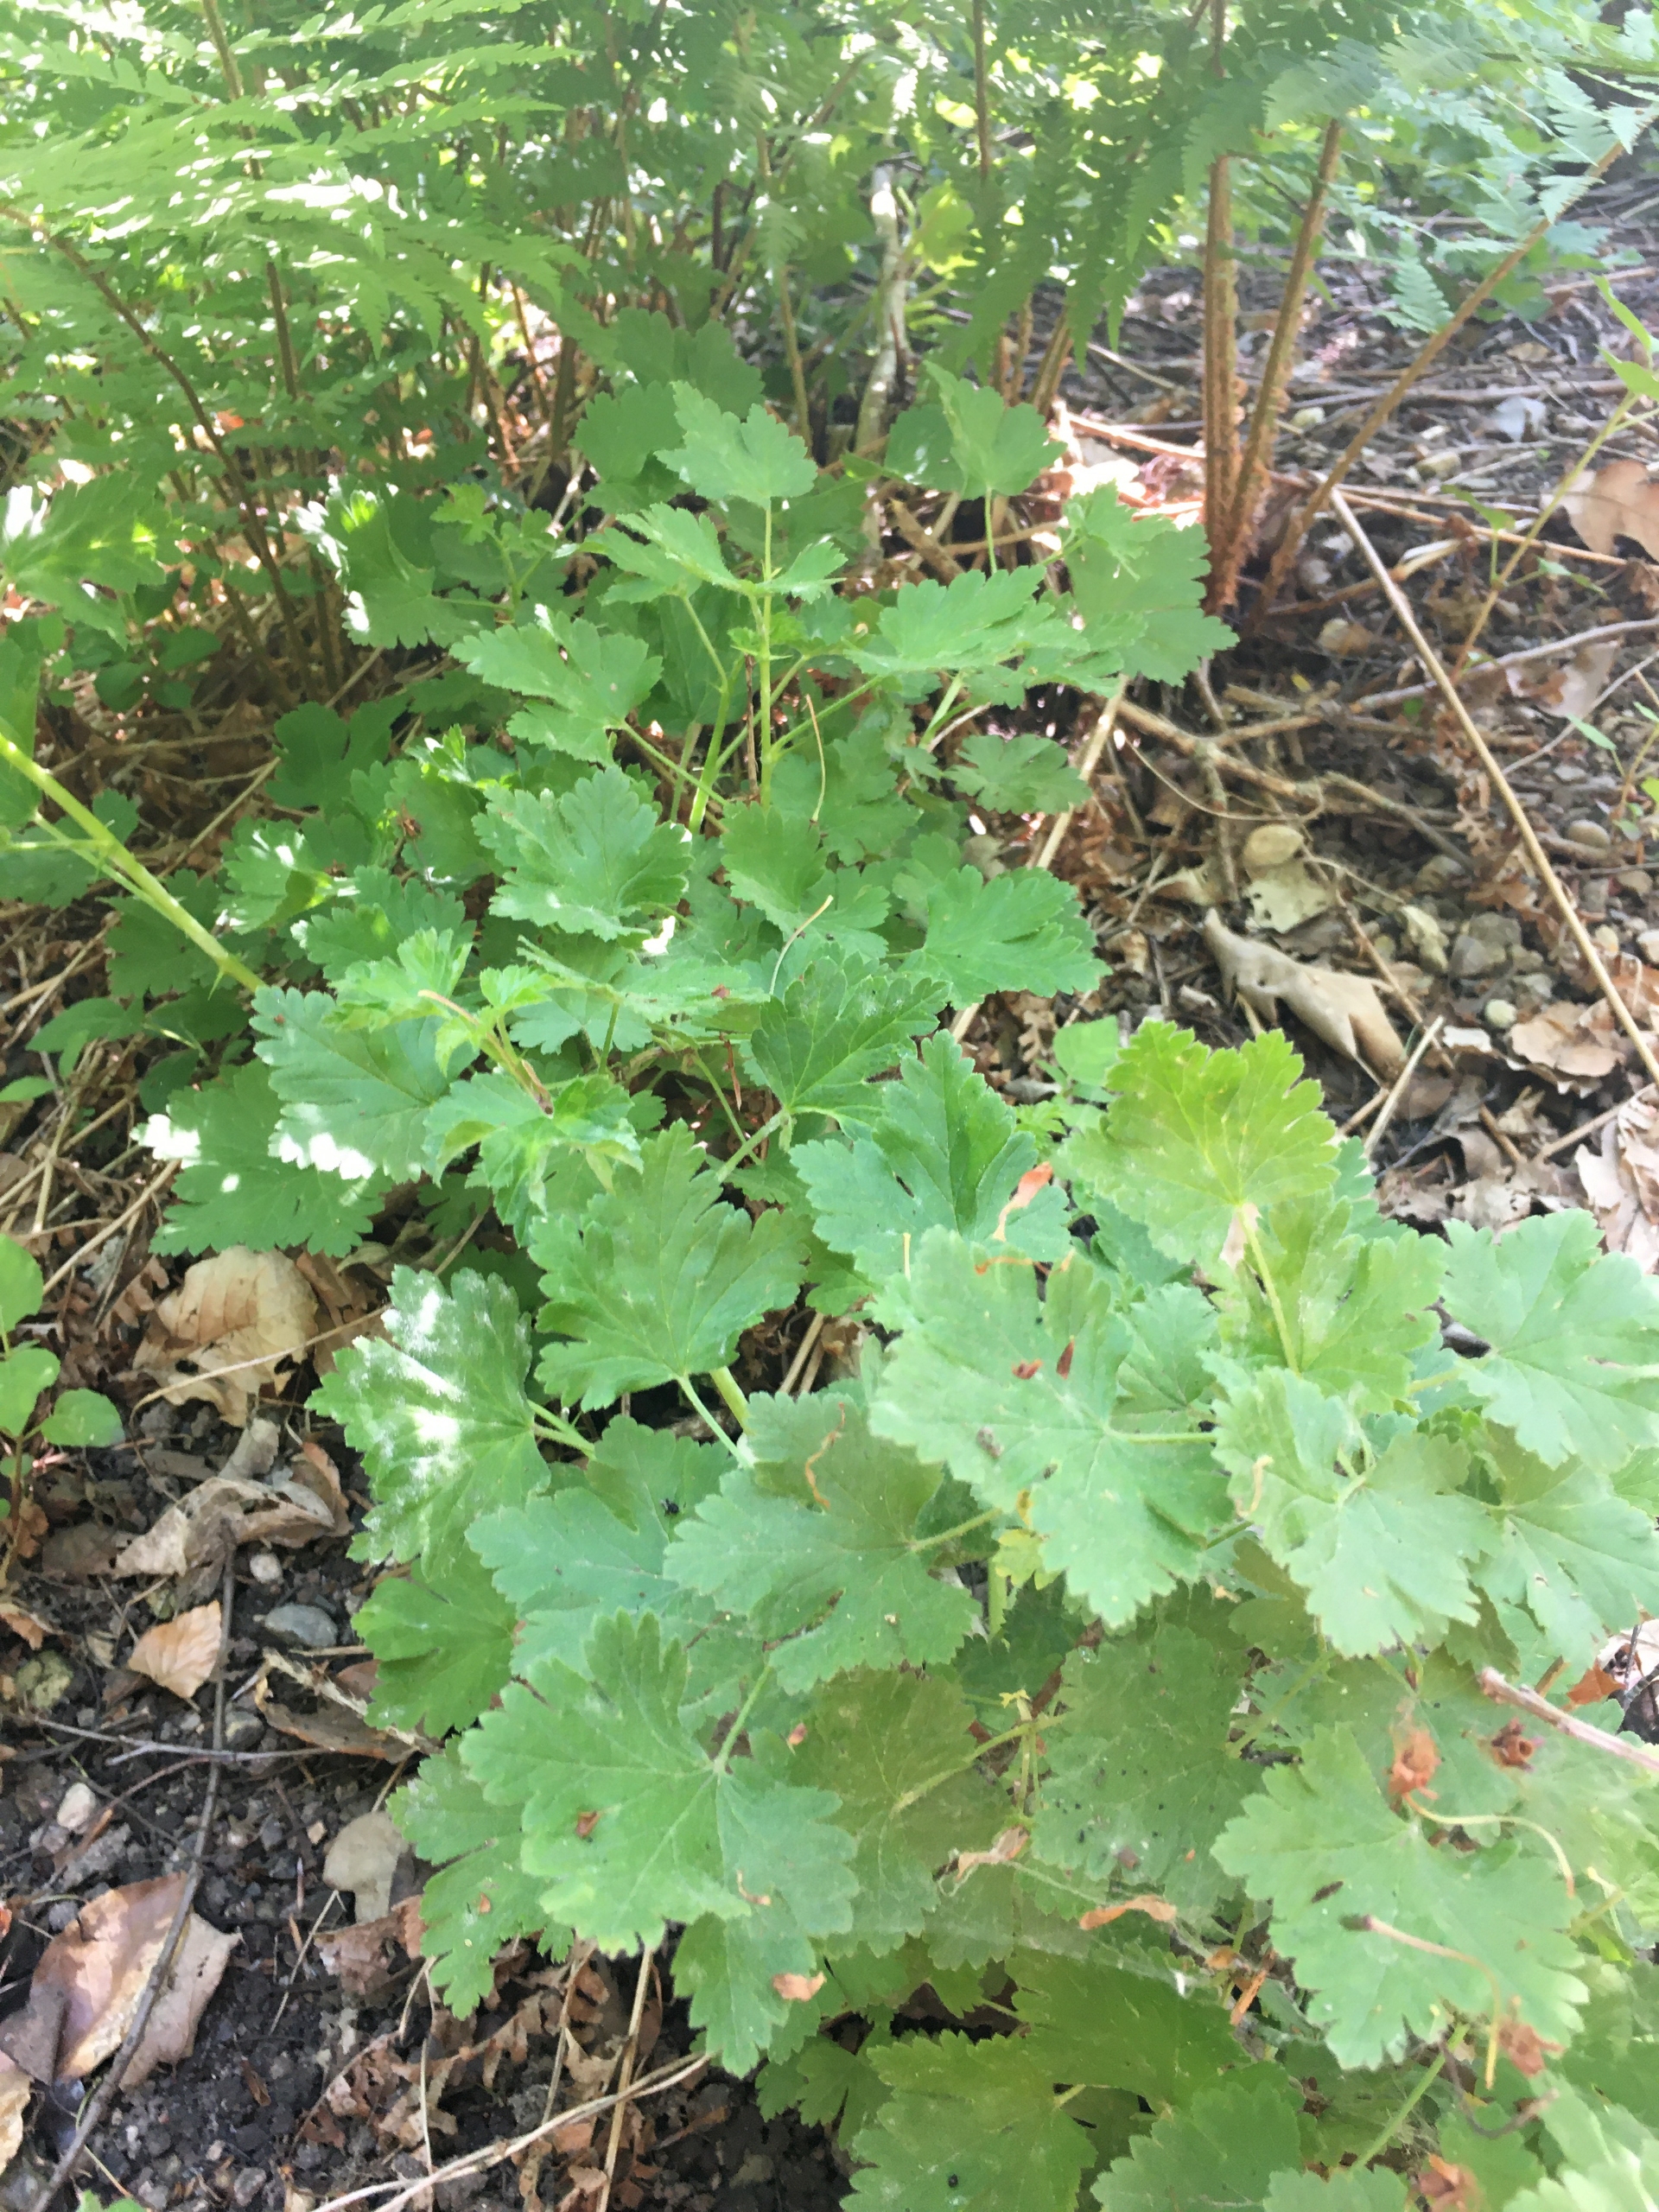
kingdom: Plantae
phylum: Tracheophyta
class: Magnoliopsida
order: Saxifragales
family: Grossulariaceae
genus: Ribes
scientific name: Ribes uva-crispa
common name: Stikkelsbær
